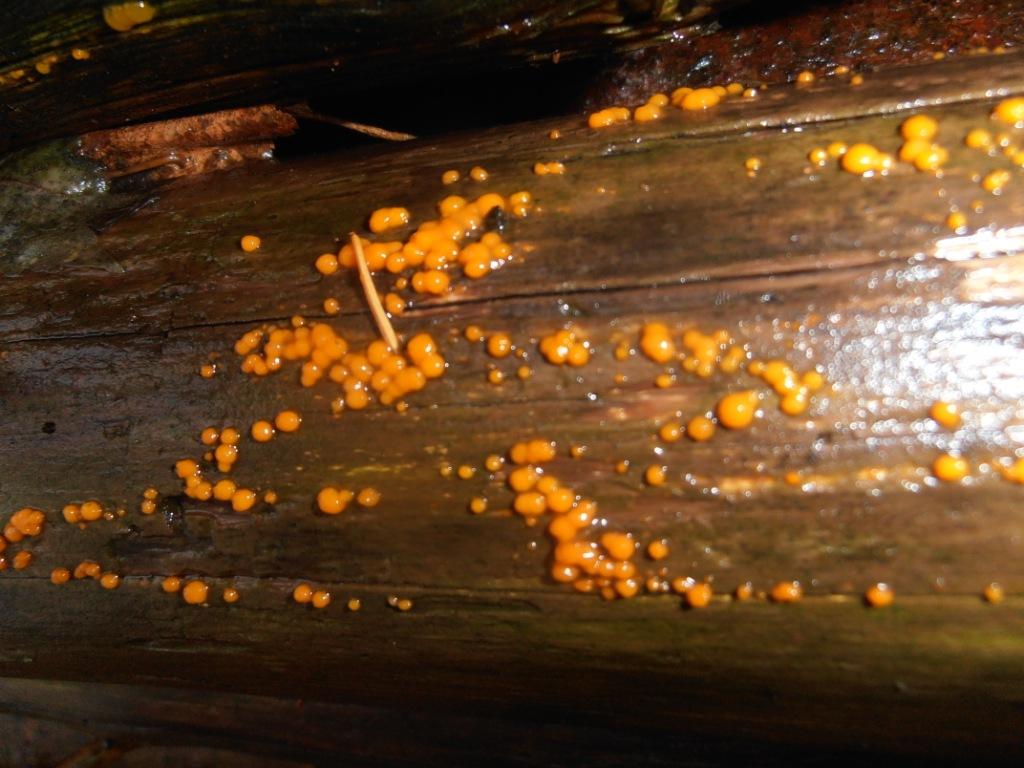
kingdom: Fungi
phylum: Basidiomycota
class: Dacrymycetes
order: Dacrymycetales
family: Dacrymycetaceae
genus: Dacrymyces
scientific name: Dacrymyces stillatus
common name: almindelig tåresvamp
